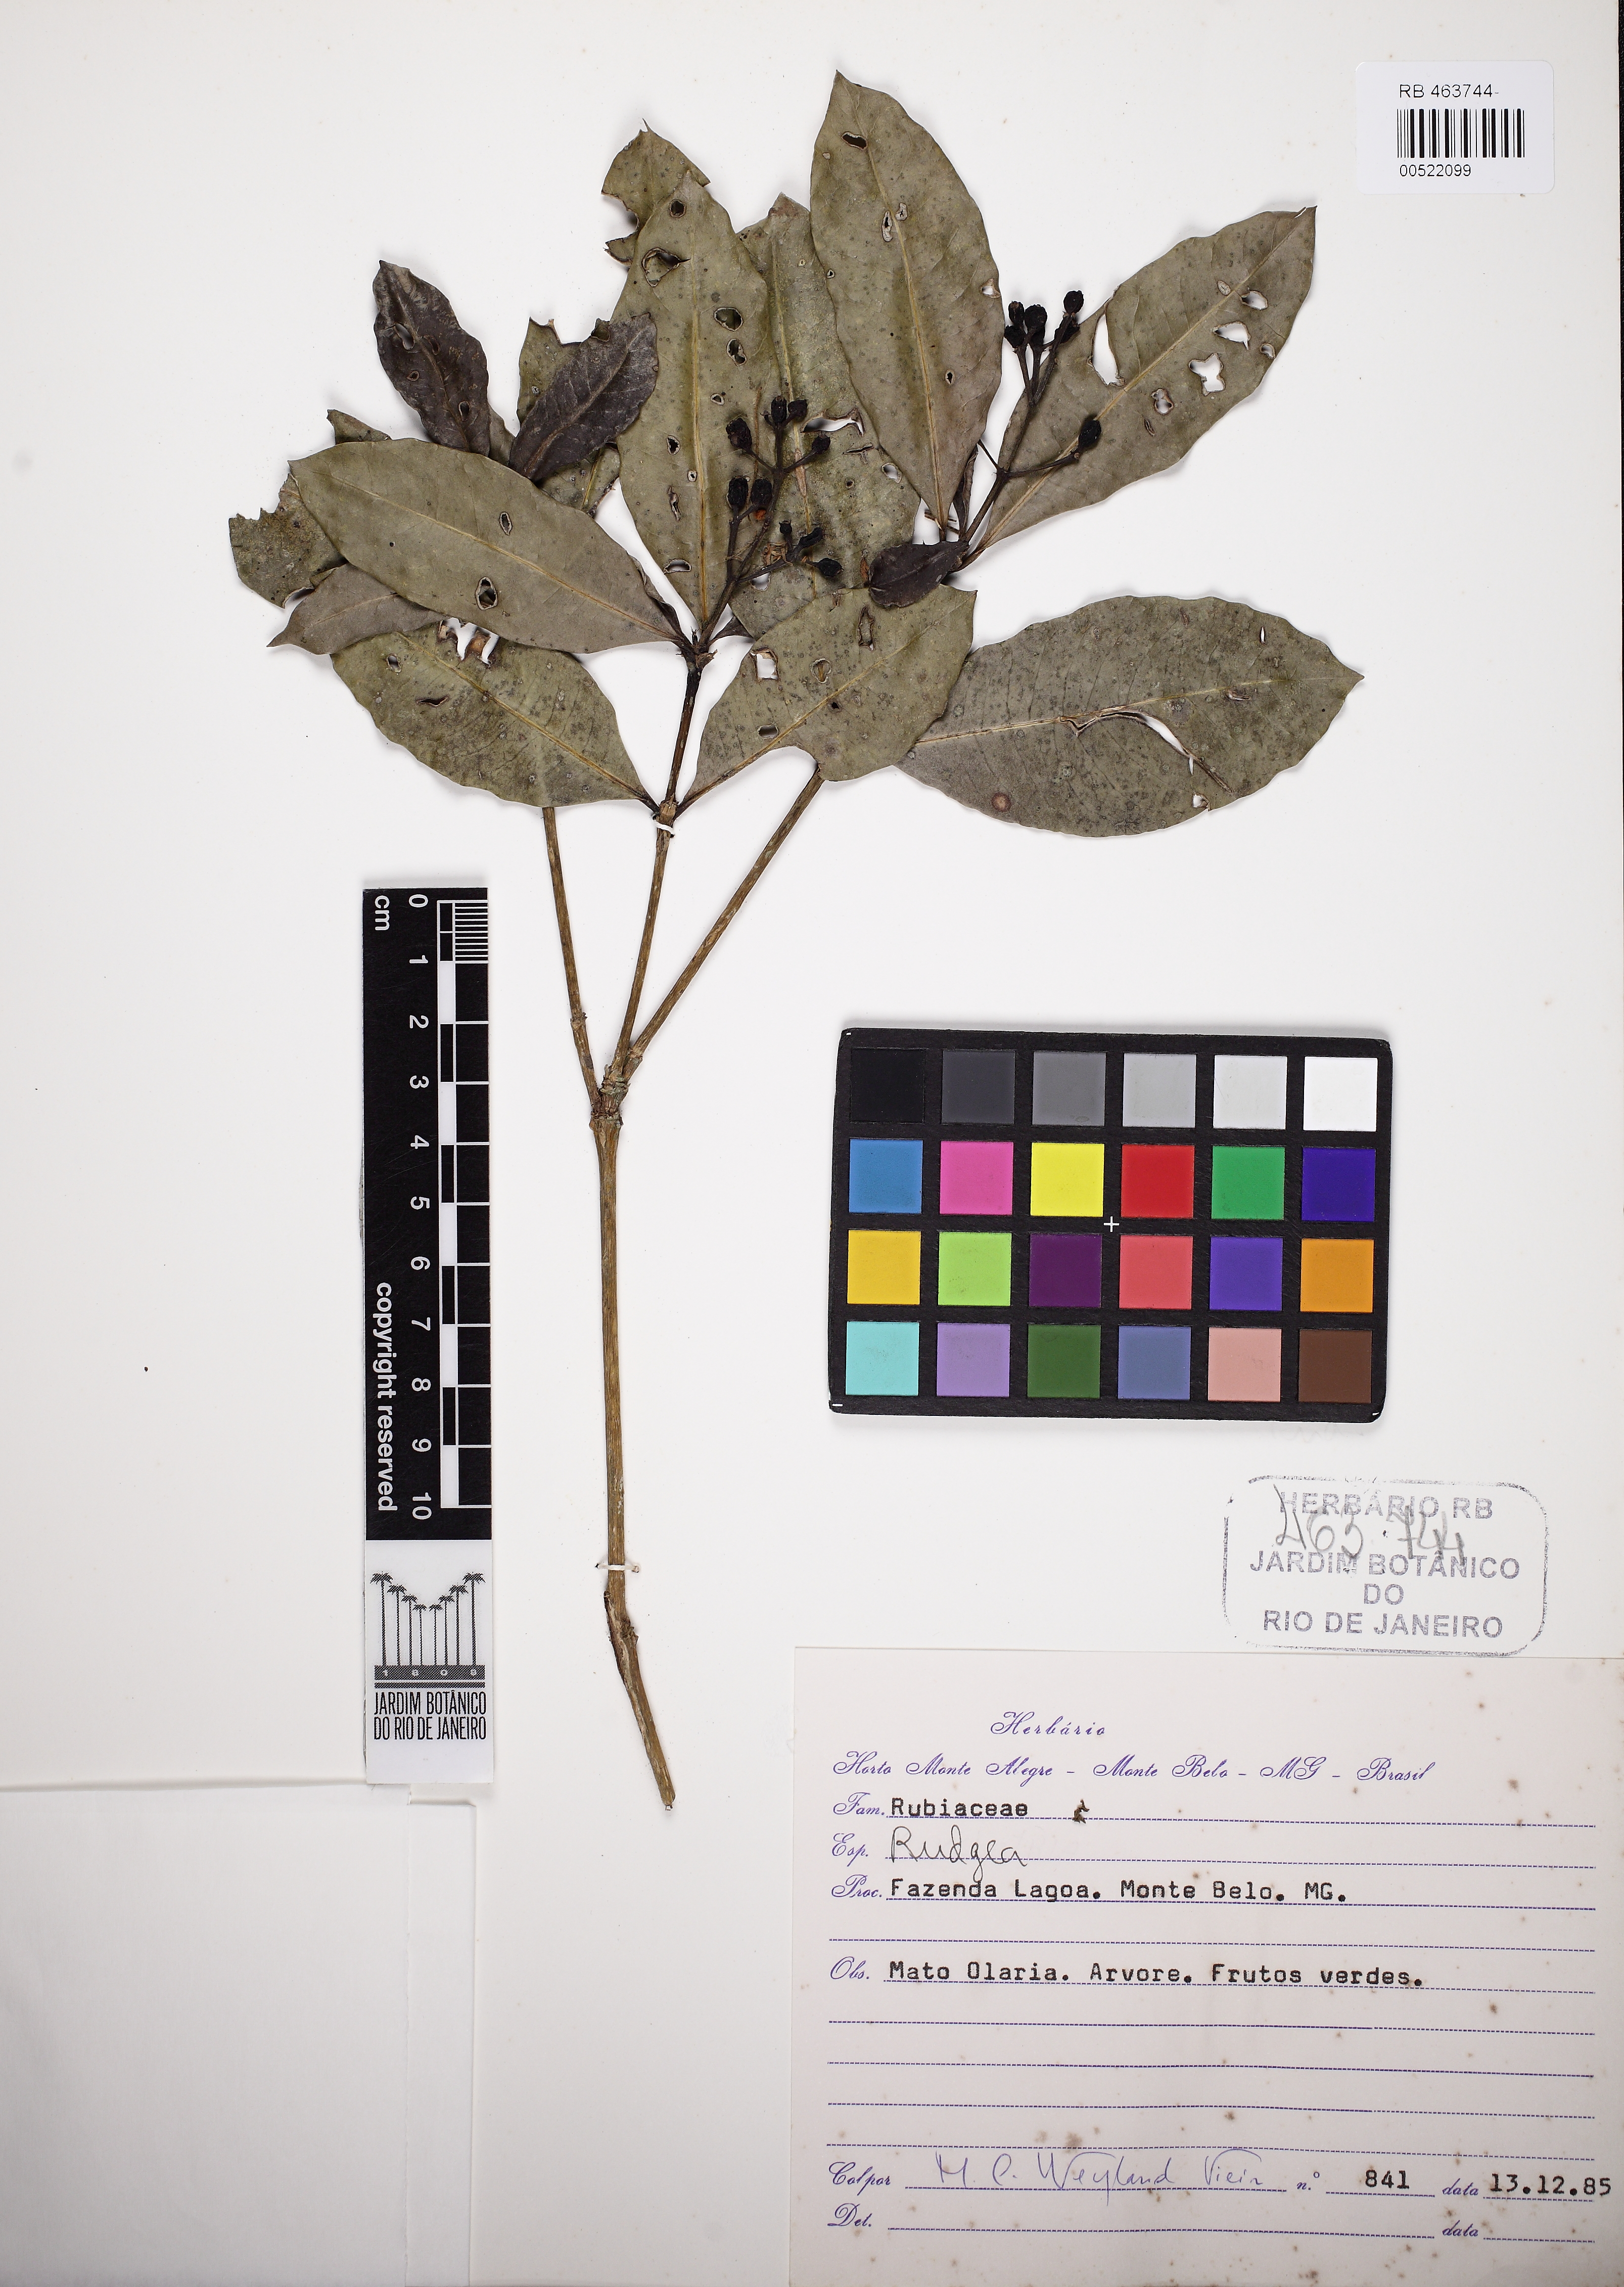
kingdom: Plantae
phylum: Tracheophyta
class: Magnoliopsida
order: Gentianales
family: Rubiaceae
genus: Rudgea
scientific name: Rudgea jasminoides
